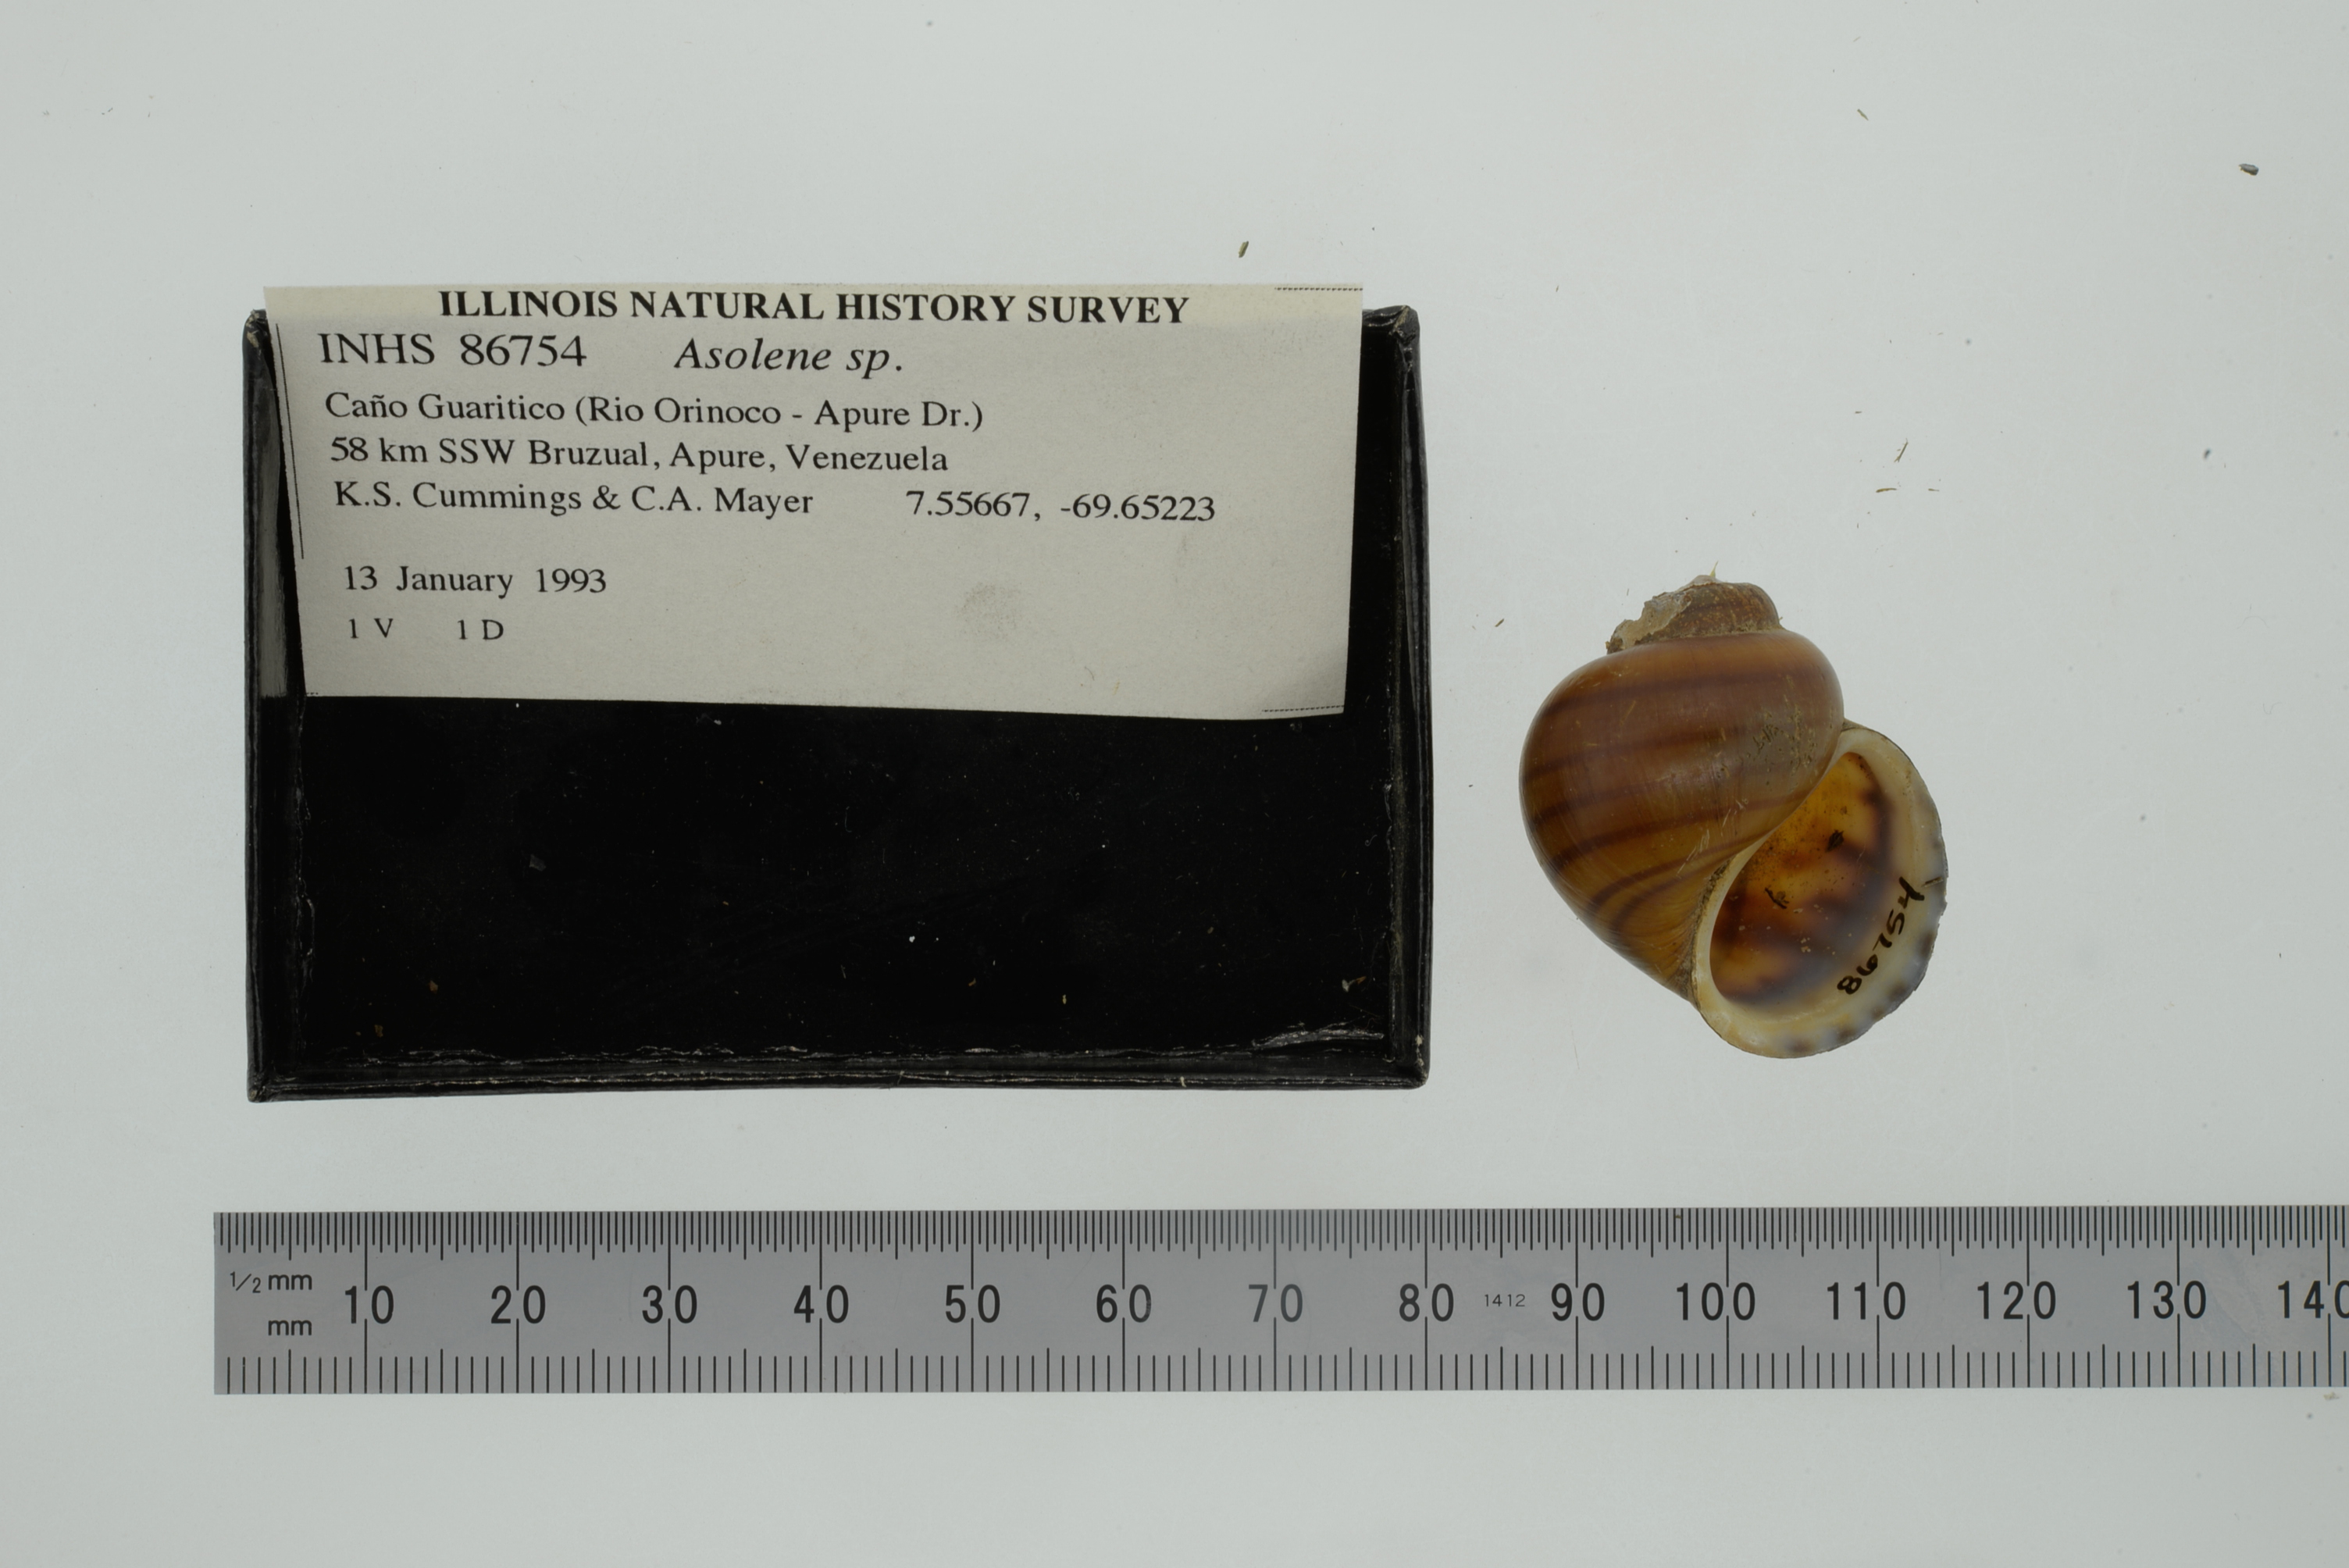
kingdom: Animalia
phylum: Mollusca
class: Gastropoda
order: Architaenioglossa
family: Ampullariidae
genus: Asolene
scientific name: Asolene
